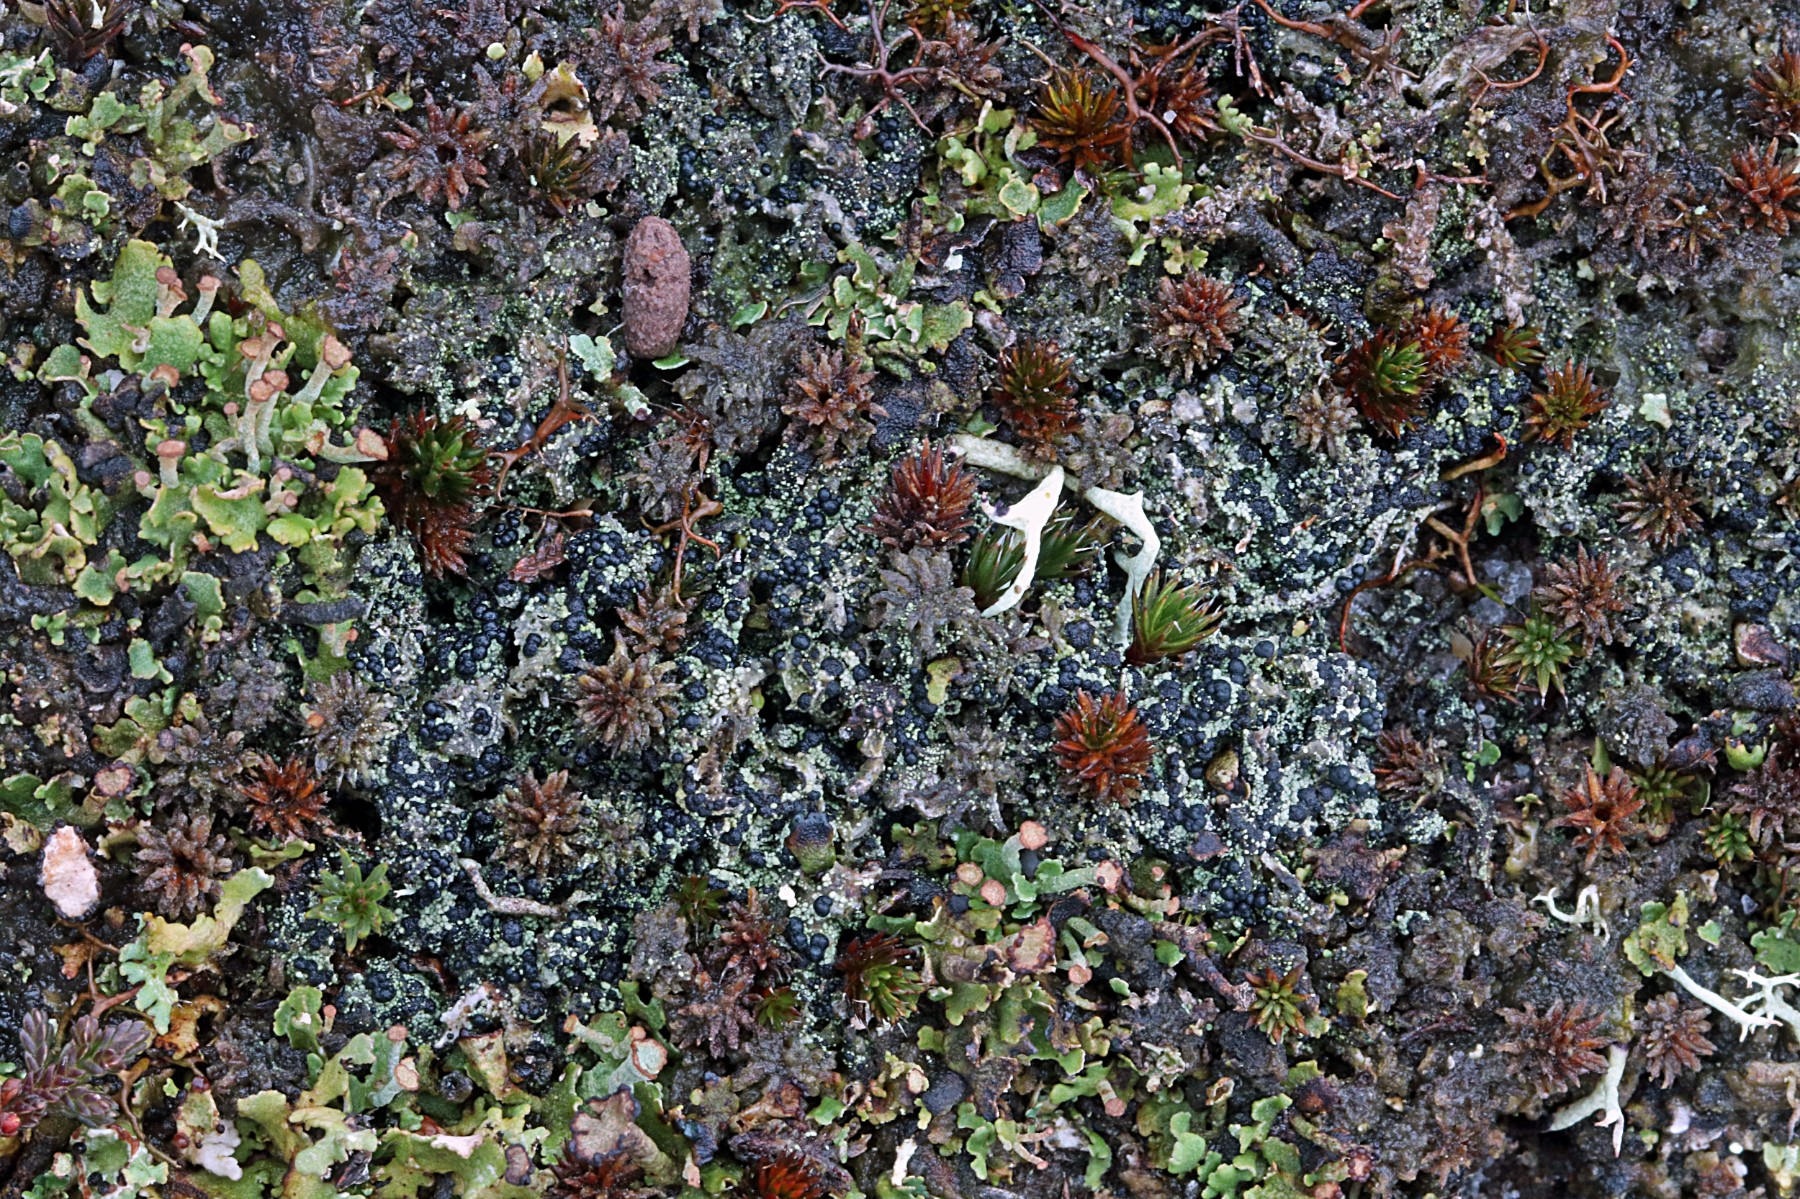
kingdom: Fungi
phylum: Ascomycota
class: Lecanoromycetes
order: Lecanorales
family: Byssolomataceae
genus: Micarea
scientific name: Micarea lignaria
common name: tørve-knaplav
